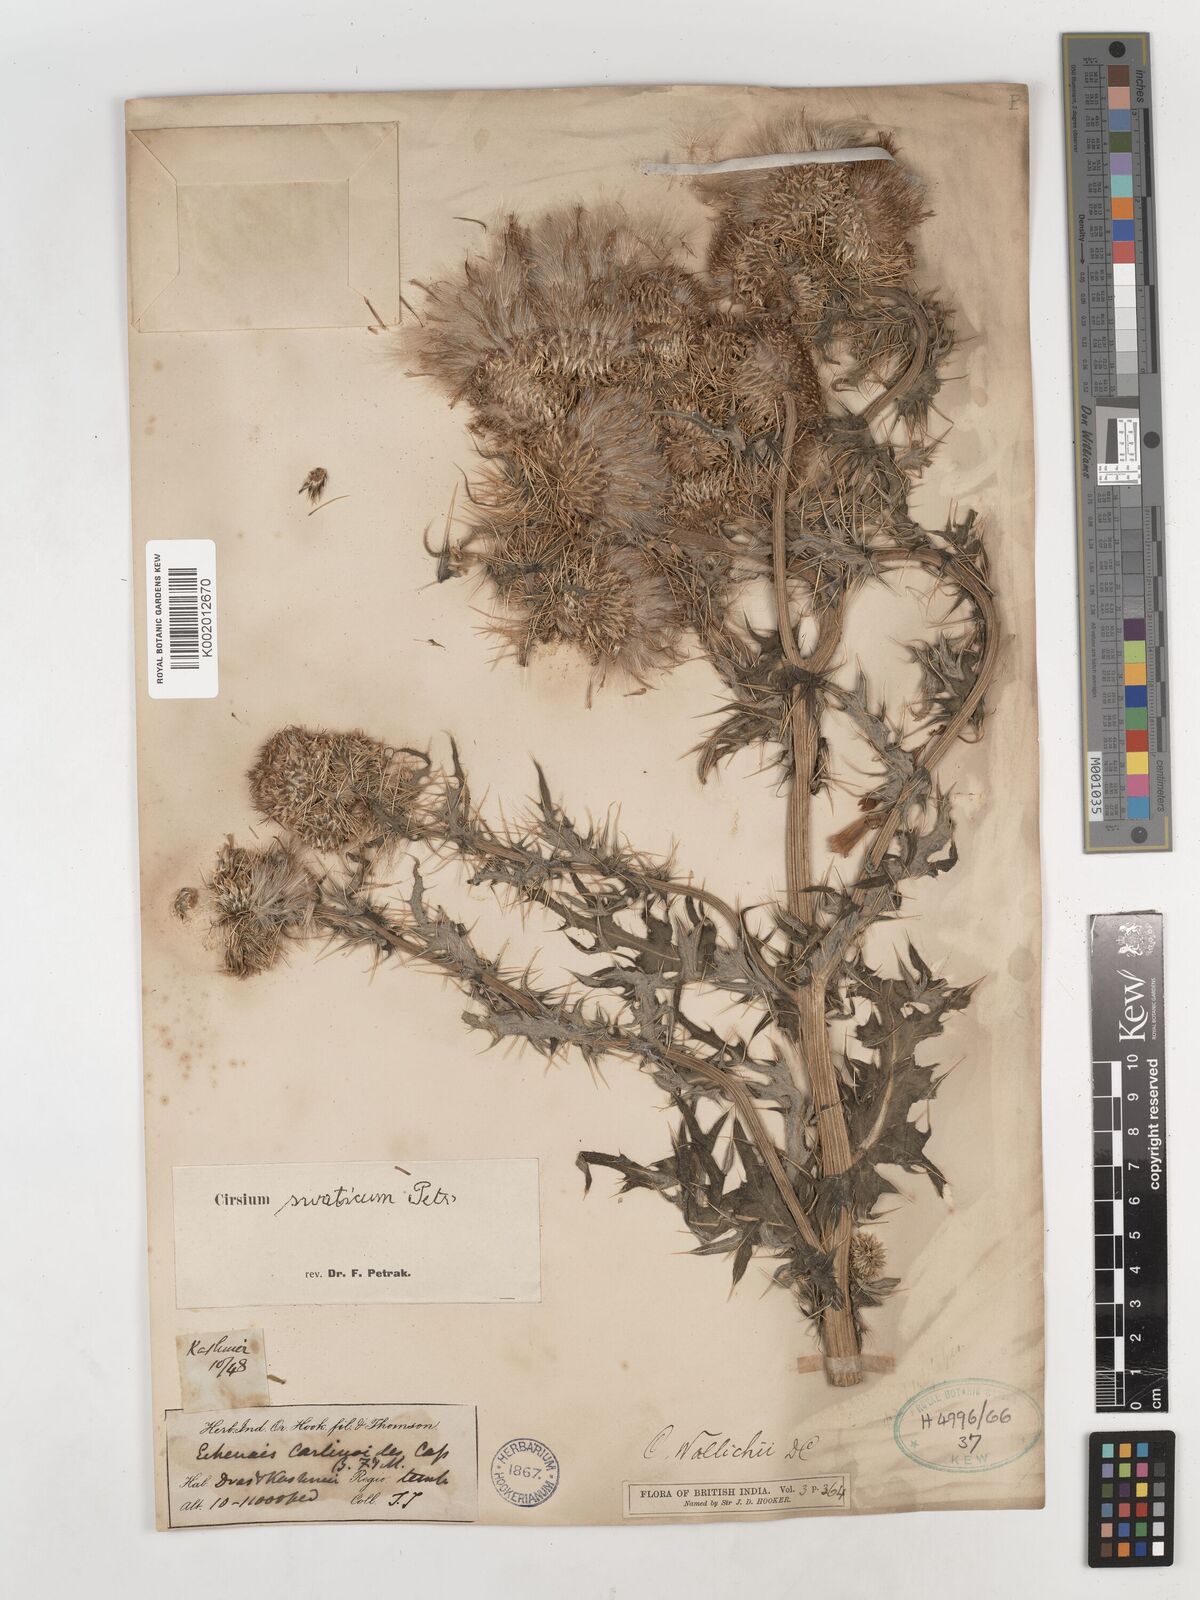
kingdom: Plantae
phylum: Tracheophyta
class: Magnoliopsida
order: Asterales
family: Asteraceae
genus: Cirsium
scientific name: Cirsium swaticum
